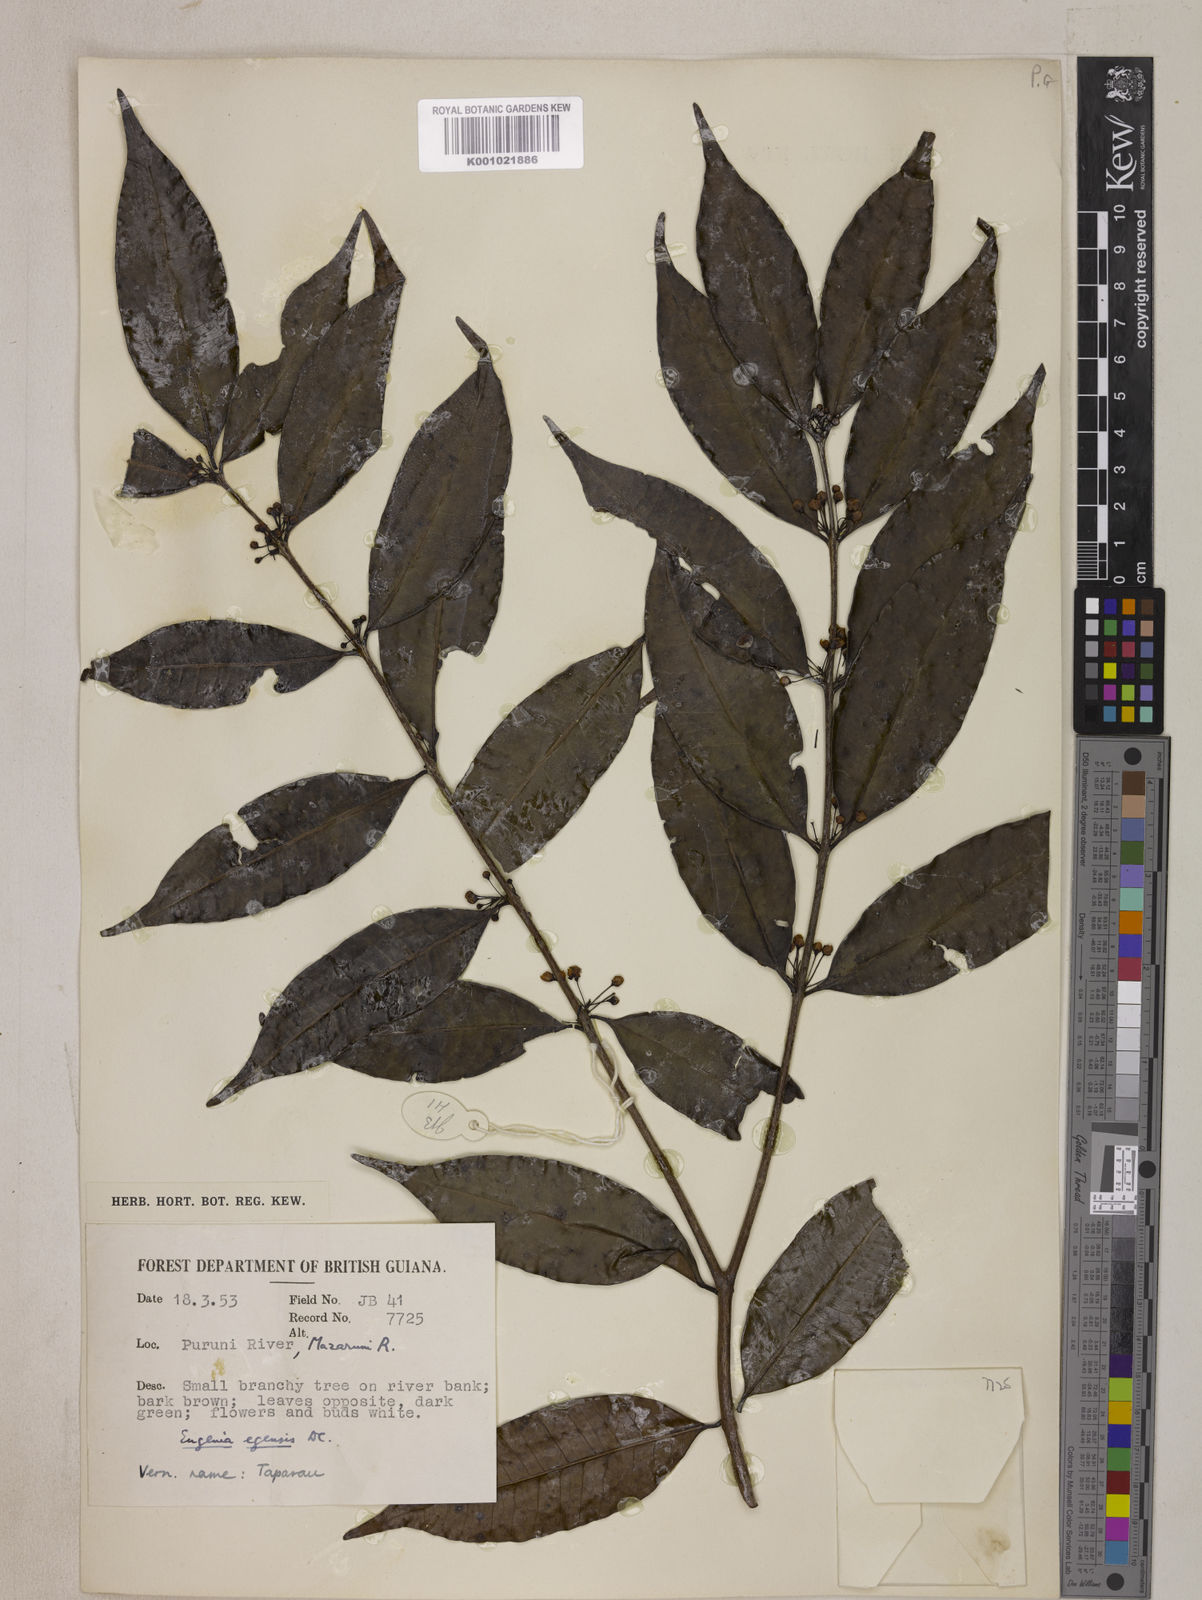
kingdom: Plantae
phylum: Tracheophyta
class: Magnoliopsida
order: Myrtales
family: Myrtaceae
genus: Eugenia
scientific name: Eugenia egensis
